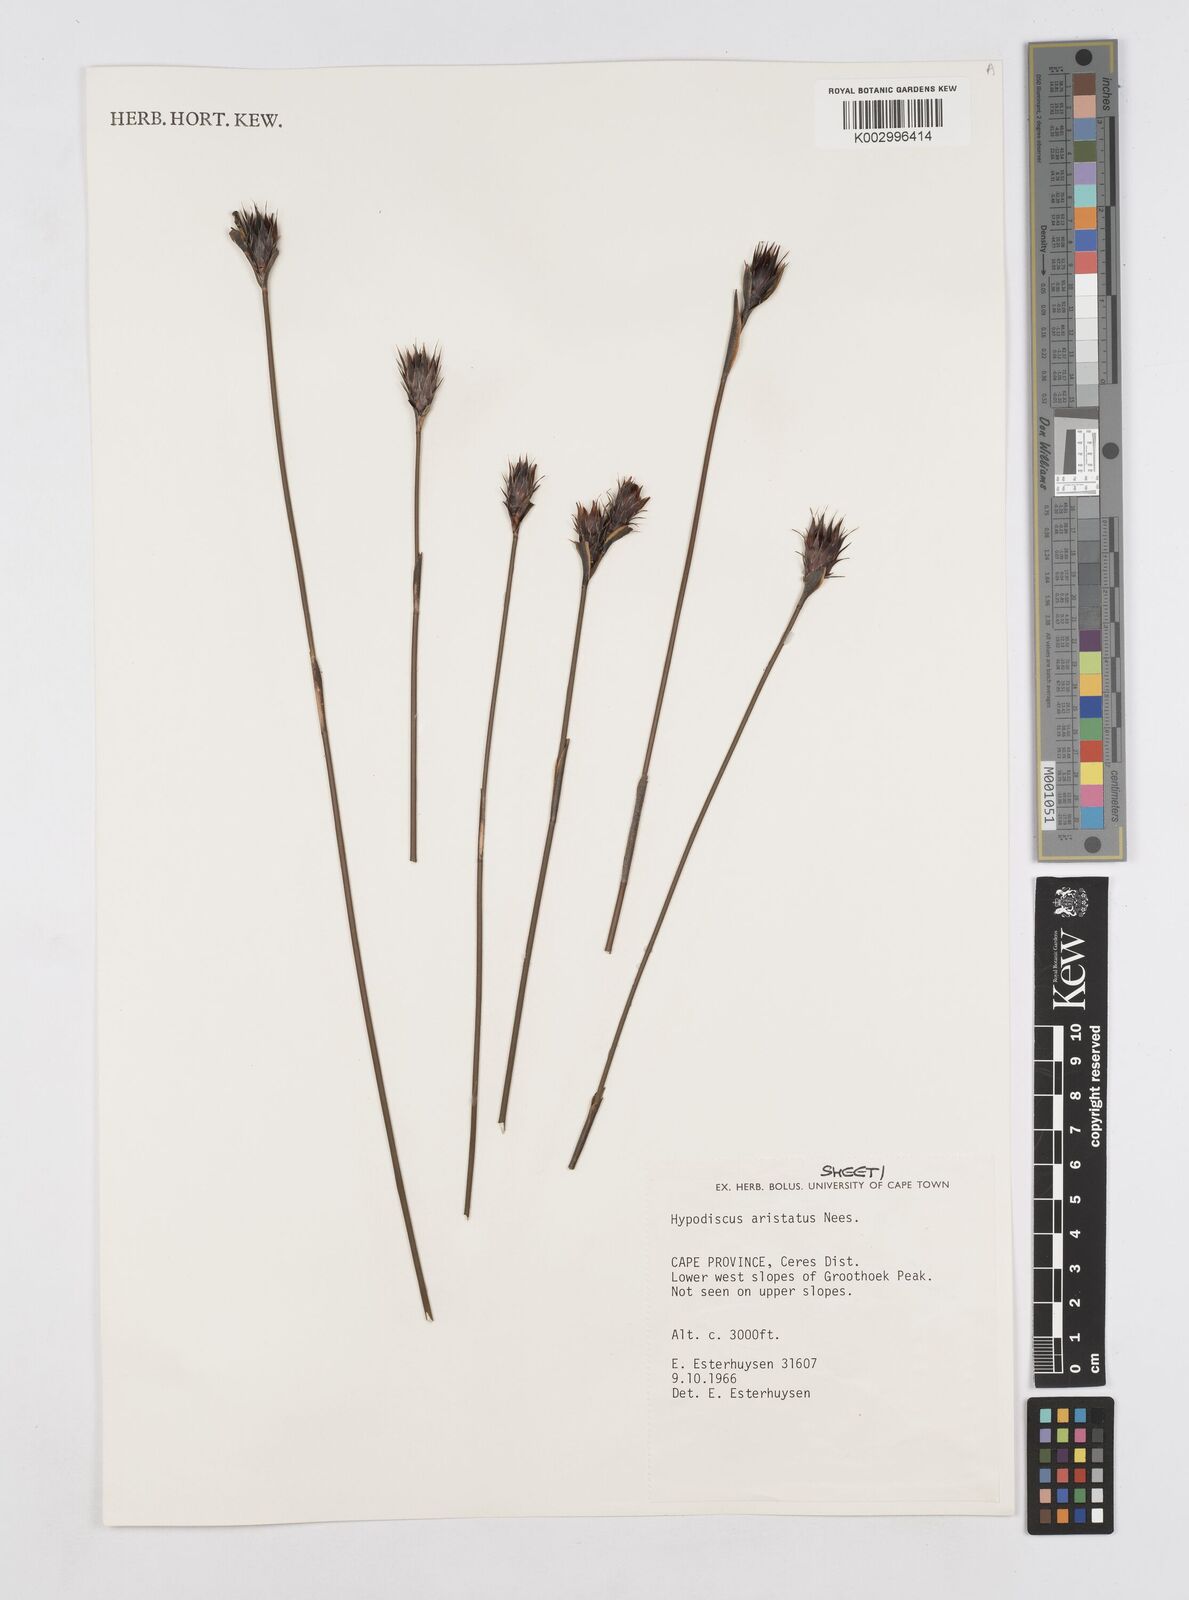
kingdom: Plantae
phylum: Tracheophyta
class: Liliopsida
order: Poales
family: Restionaceae
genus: Hypodiscus
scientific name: Hypodiscus aristatus
